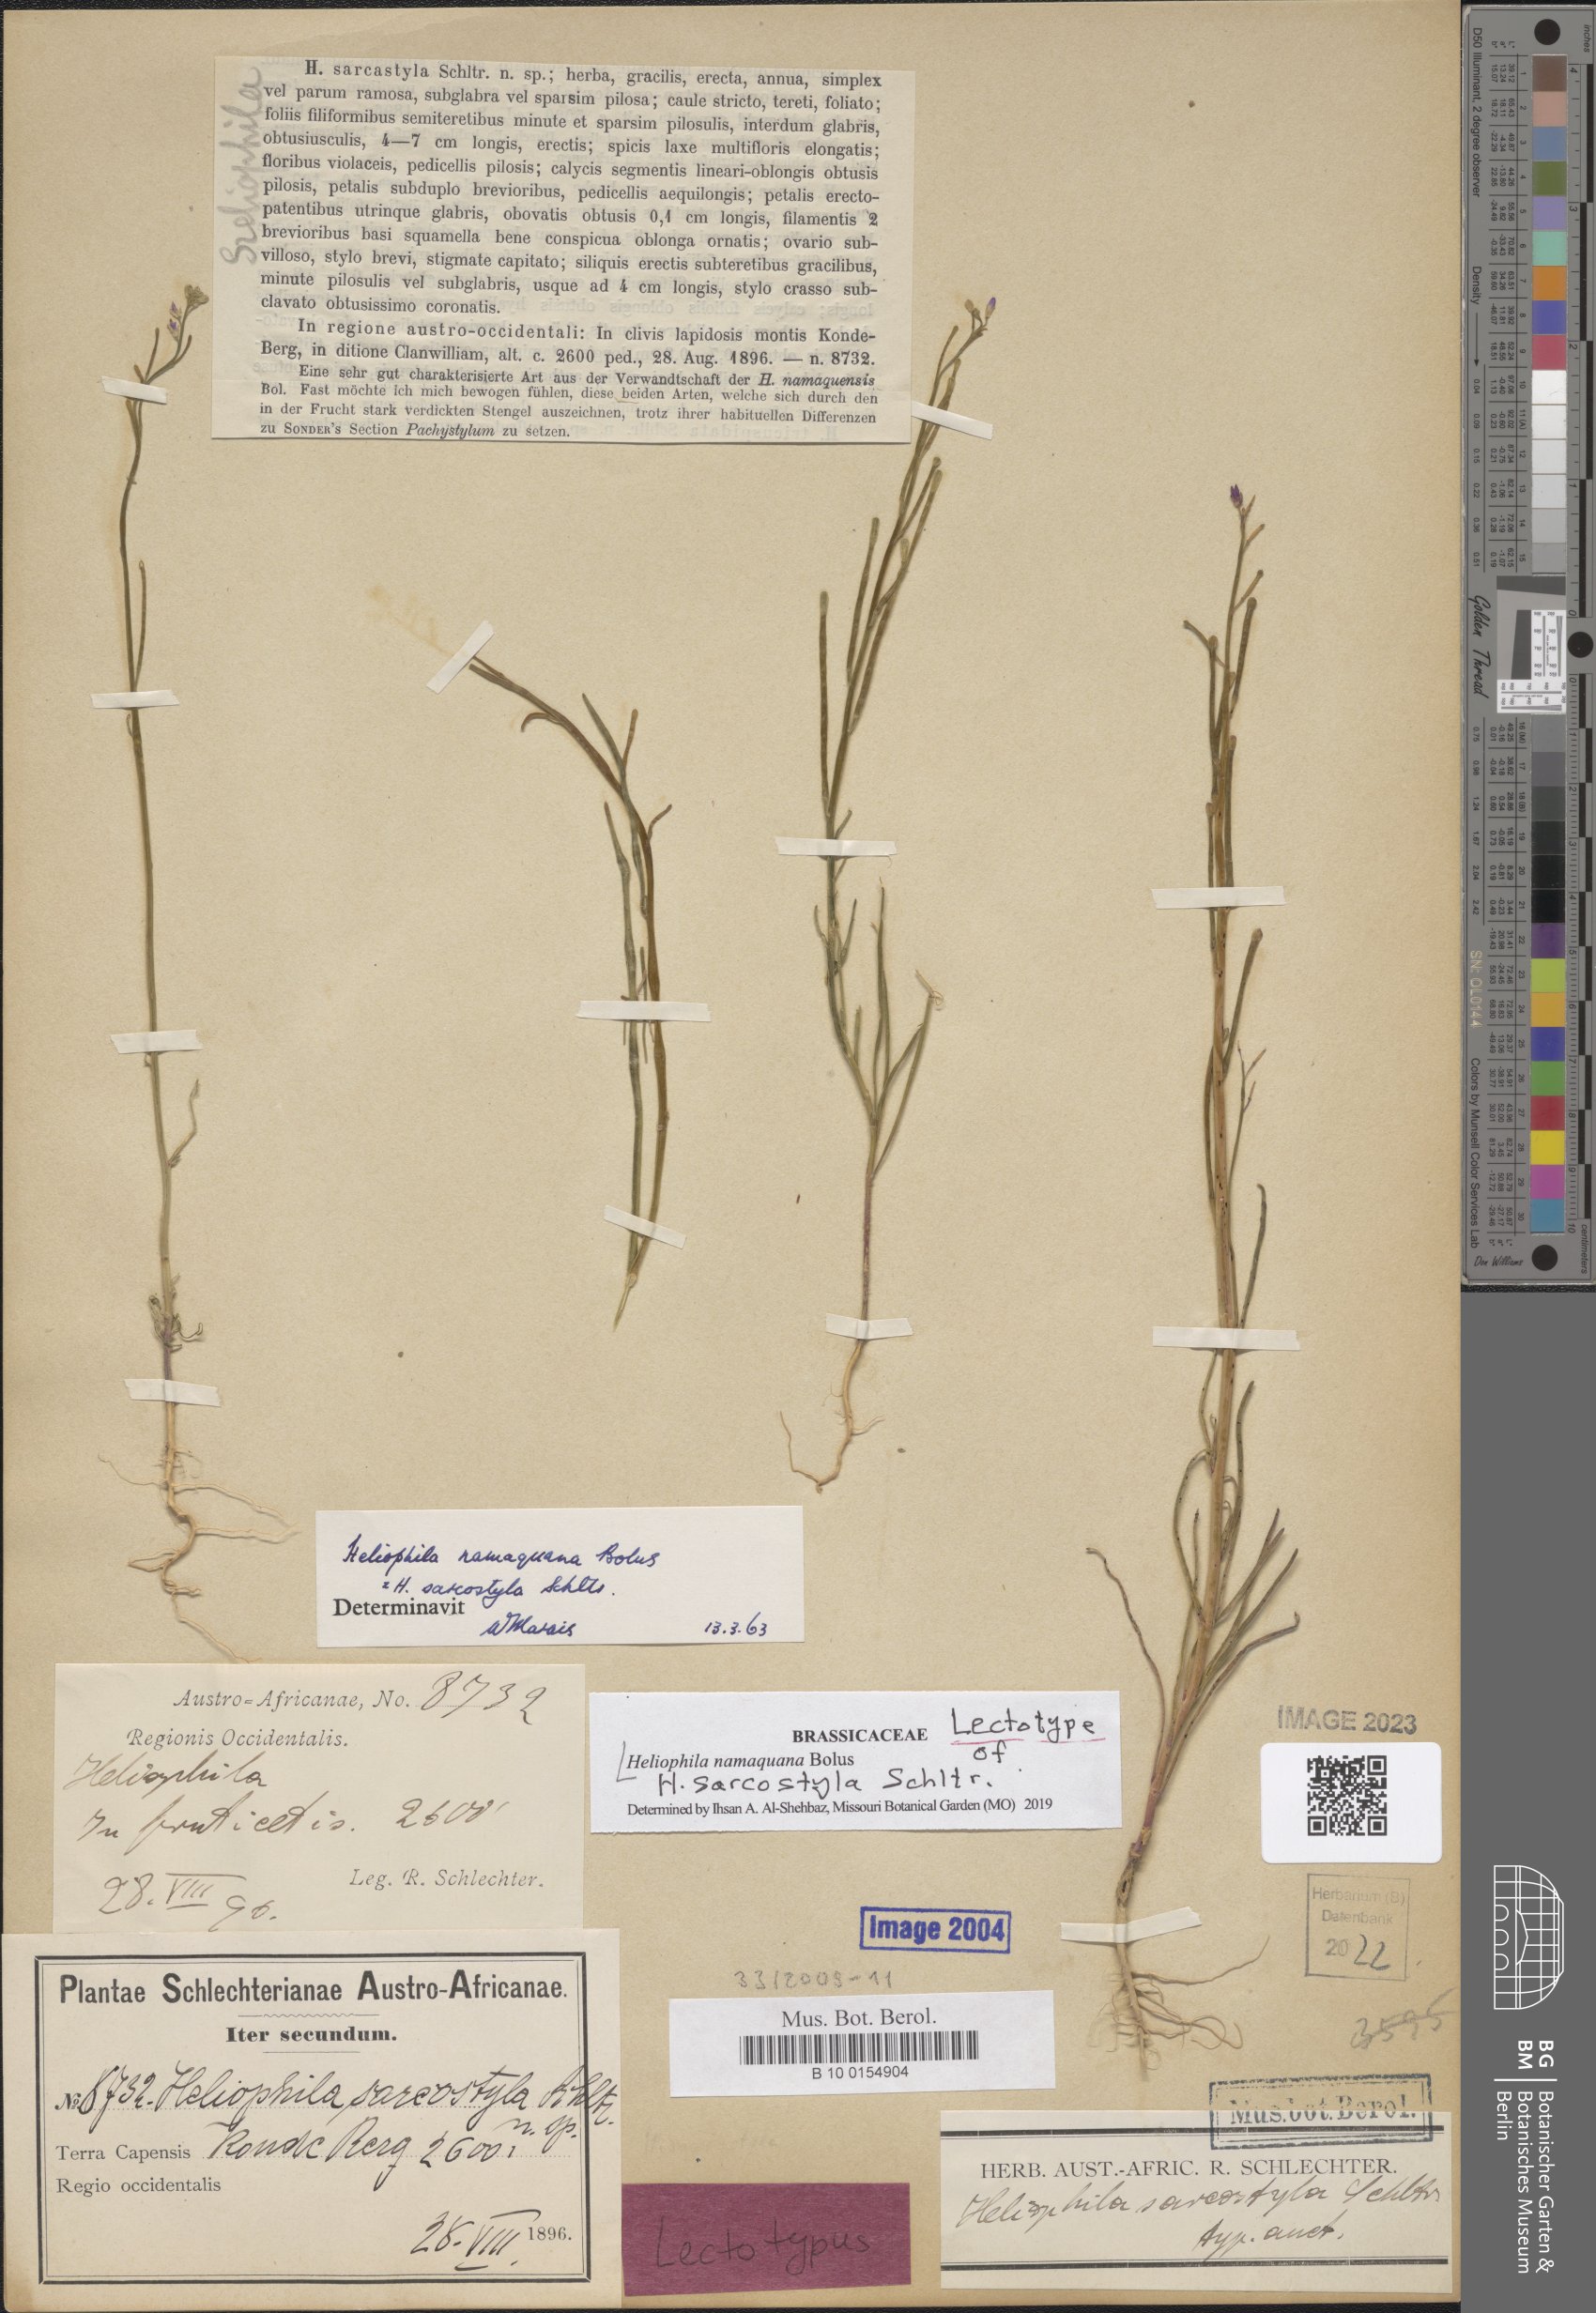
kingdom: Plantae
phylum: Tracheophyta
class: Magnoliopsida
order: Brassicales
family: Brassicaceae
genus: Heliophila
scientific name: Heliophila namaquana
